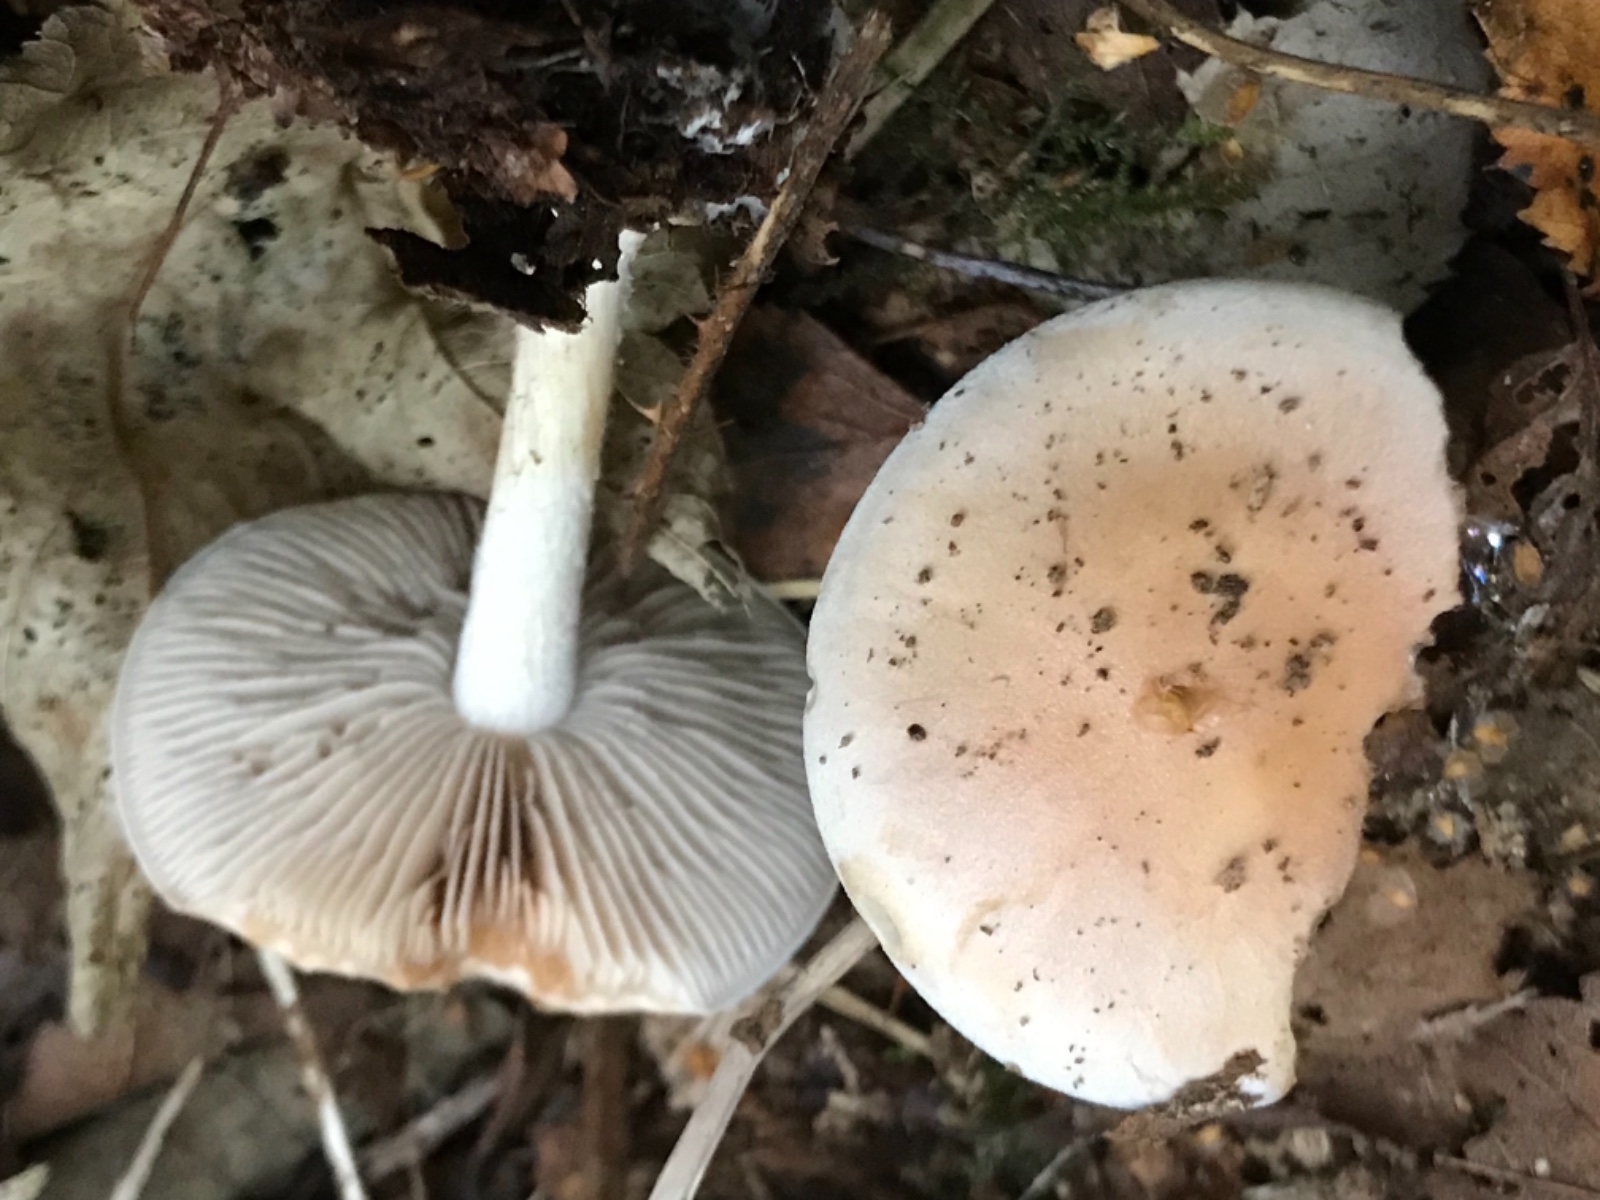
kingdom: Fungi
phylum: Basidiomycota
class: Agaricomycetes
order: Agaricales
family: Hymenogastraceae
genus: Hebeloma
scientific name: Hebeloma
